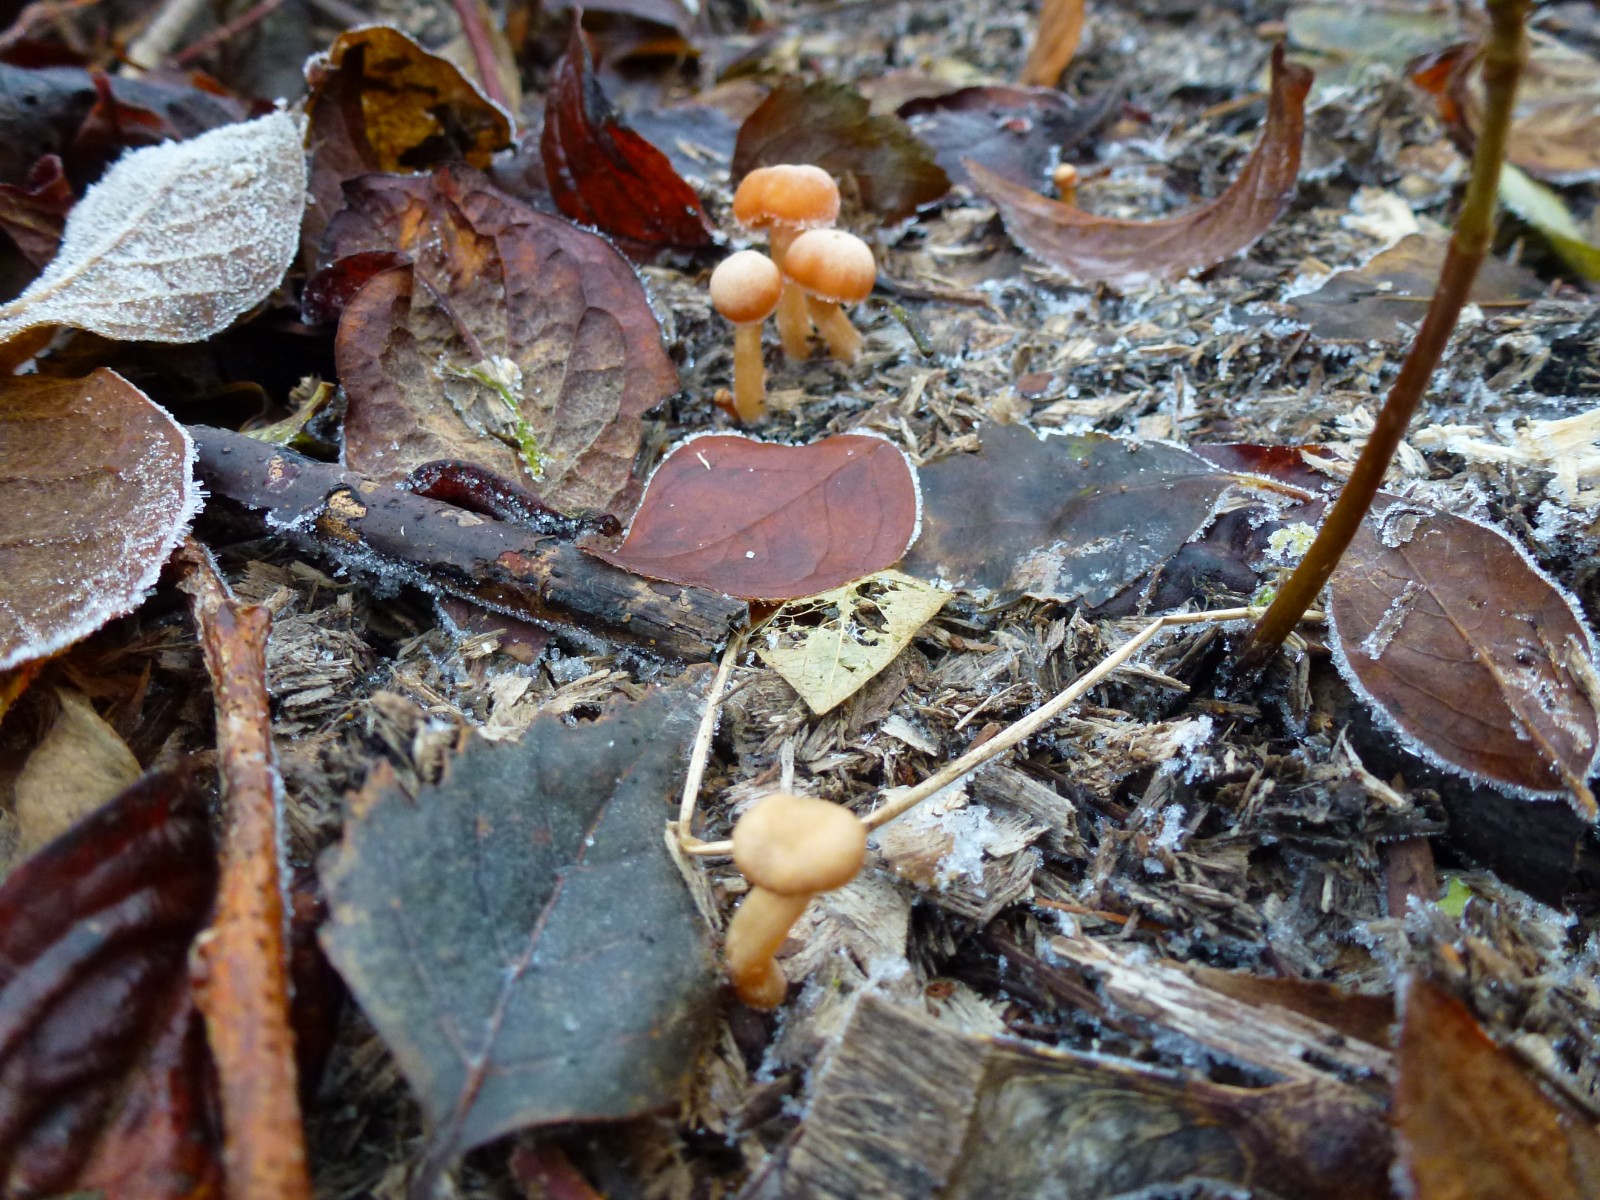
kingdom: Fungi
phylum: Basidiomycota
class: Agaricomycetes
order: Agaricales
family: Tubariaceae
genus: Tubaria
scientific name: Tubaria furfuracea
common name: kliddet fnughat
